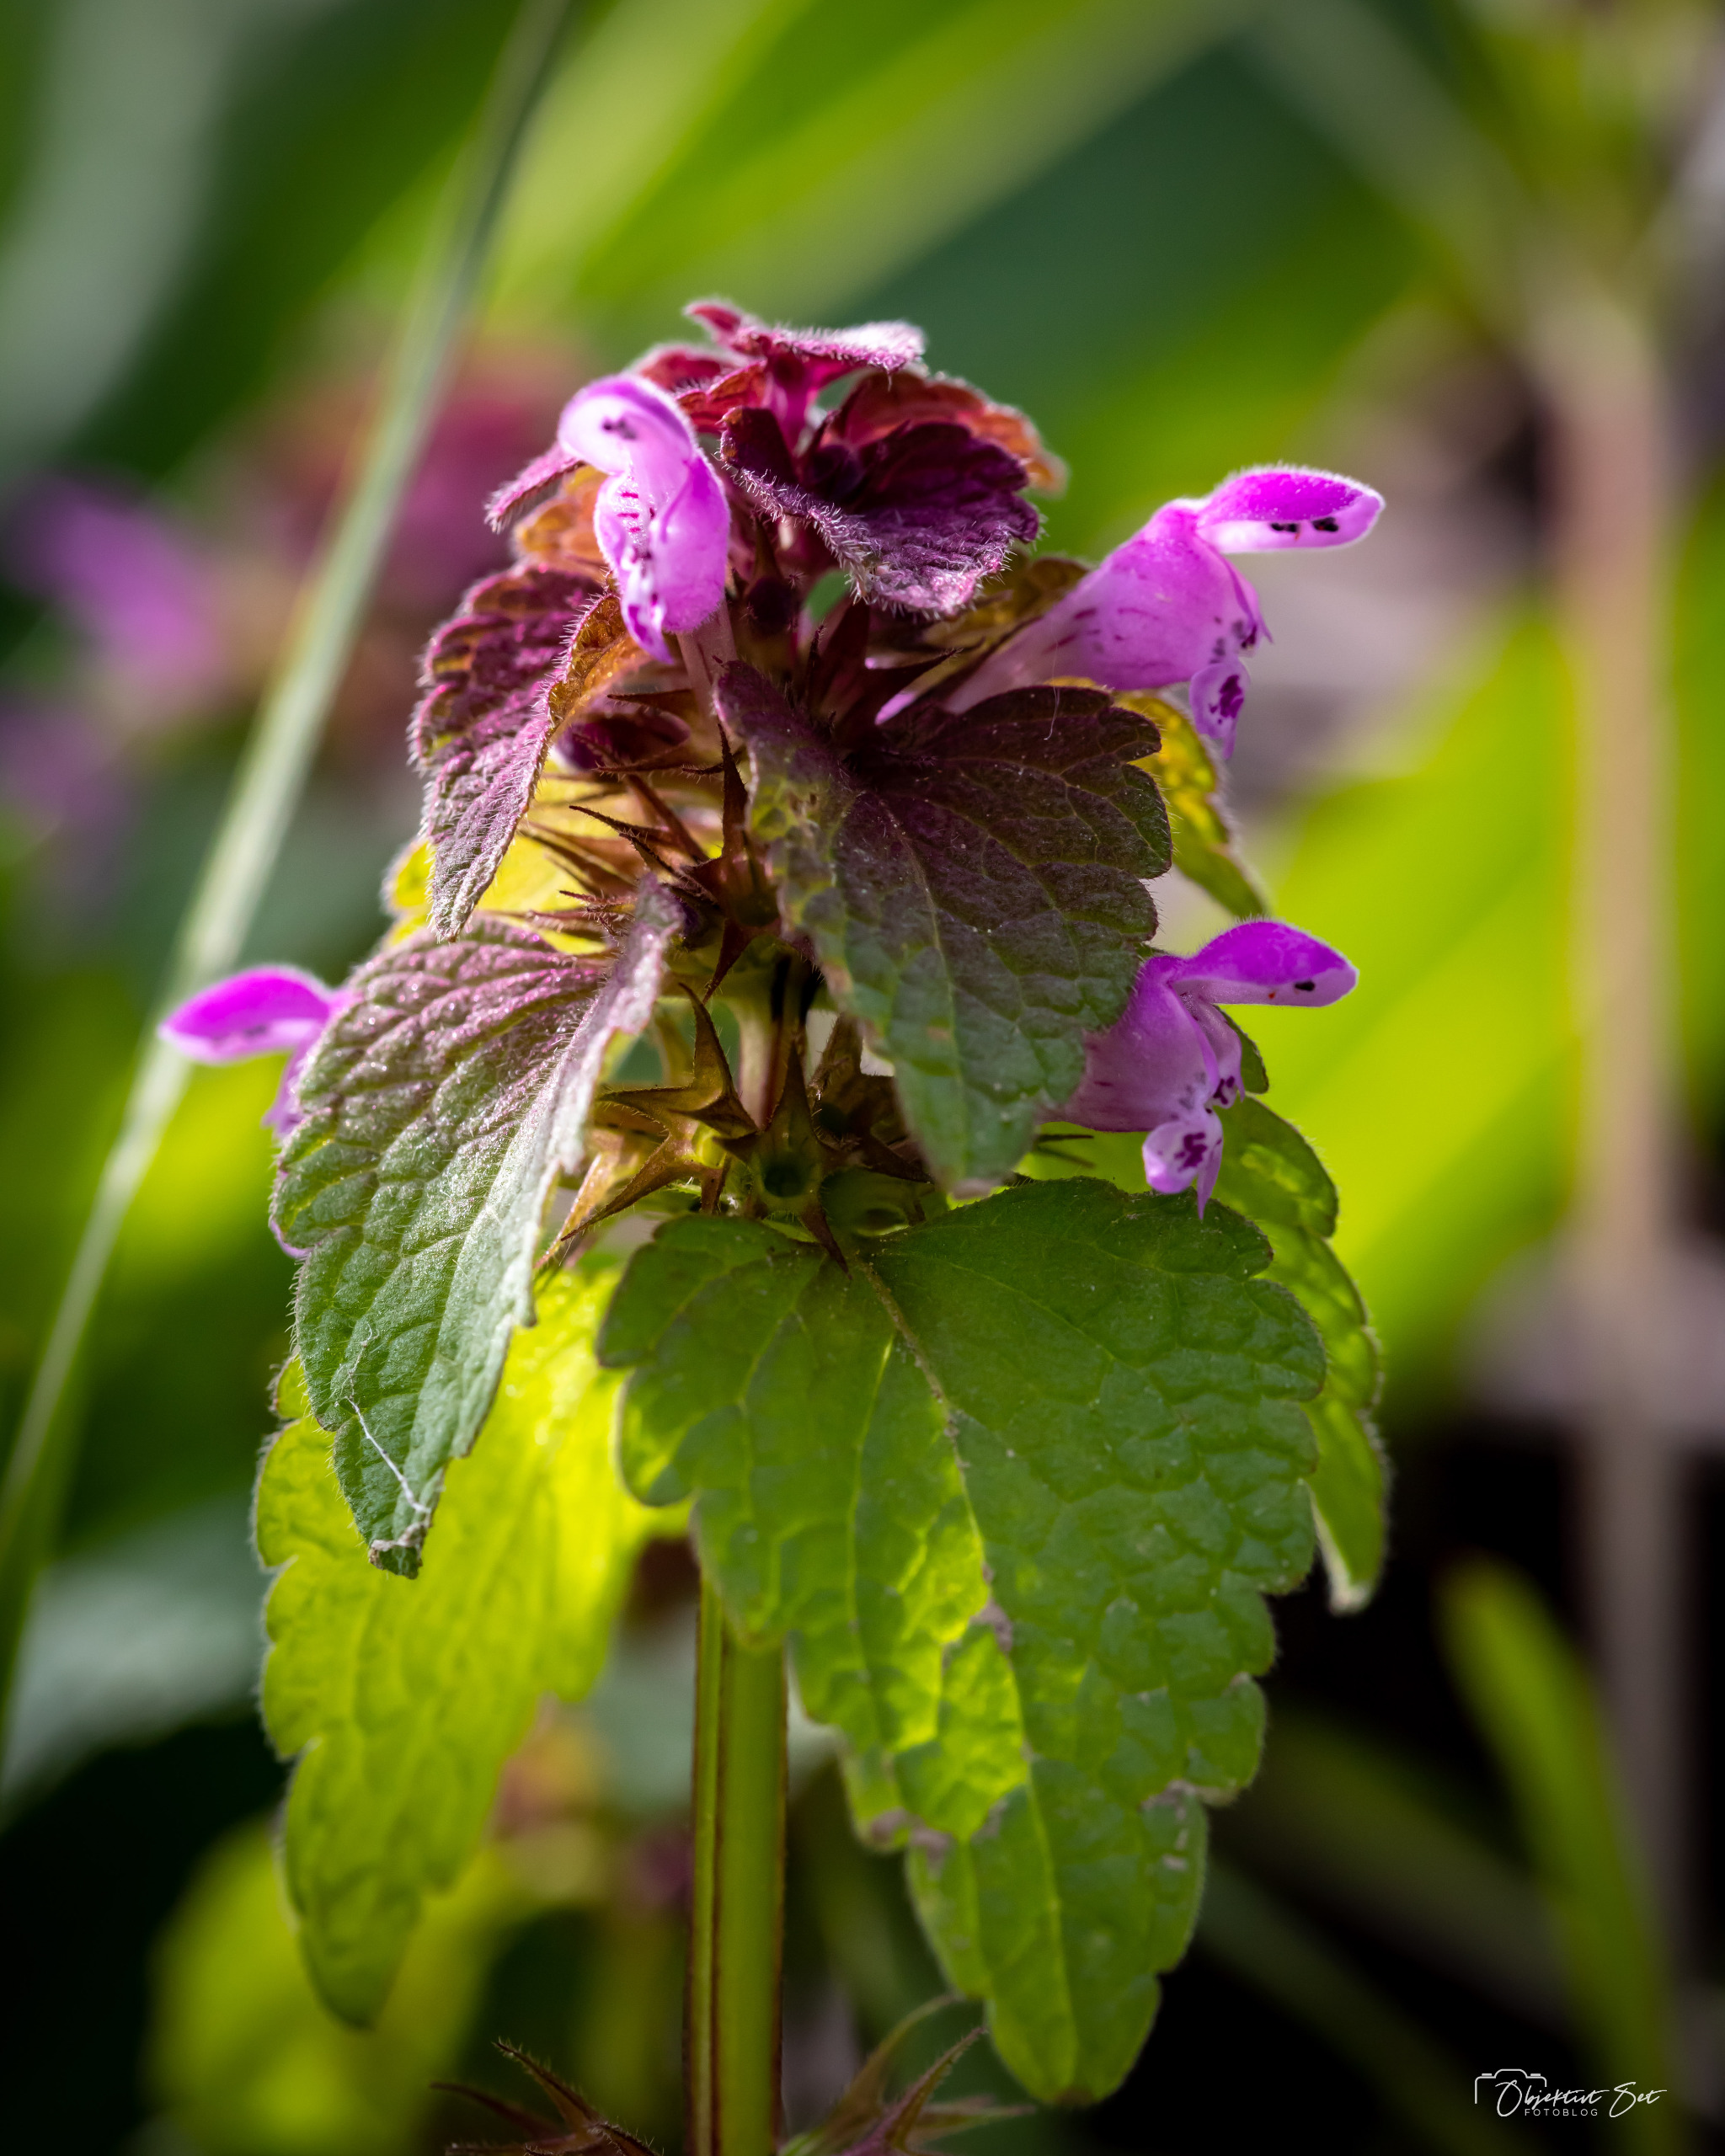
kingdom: Plantae
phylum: Tracheophyta
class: Magnoliopsida
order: Lamiales
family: Lamiaceae
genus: Lamium
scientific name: Lamium purpureum
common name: Rød tvetand
